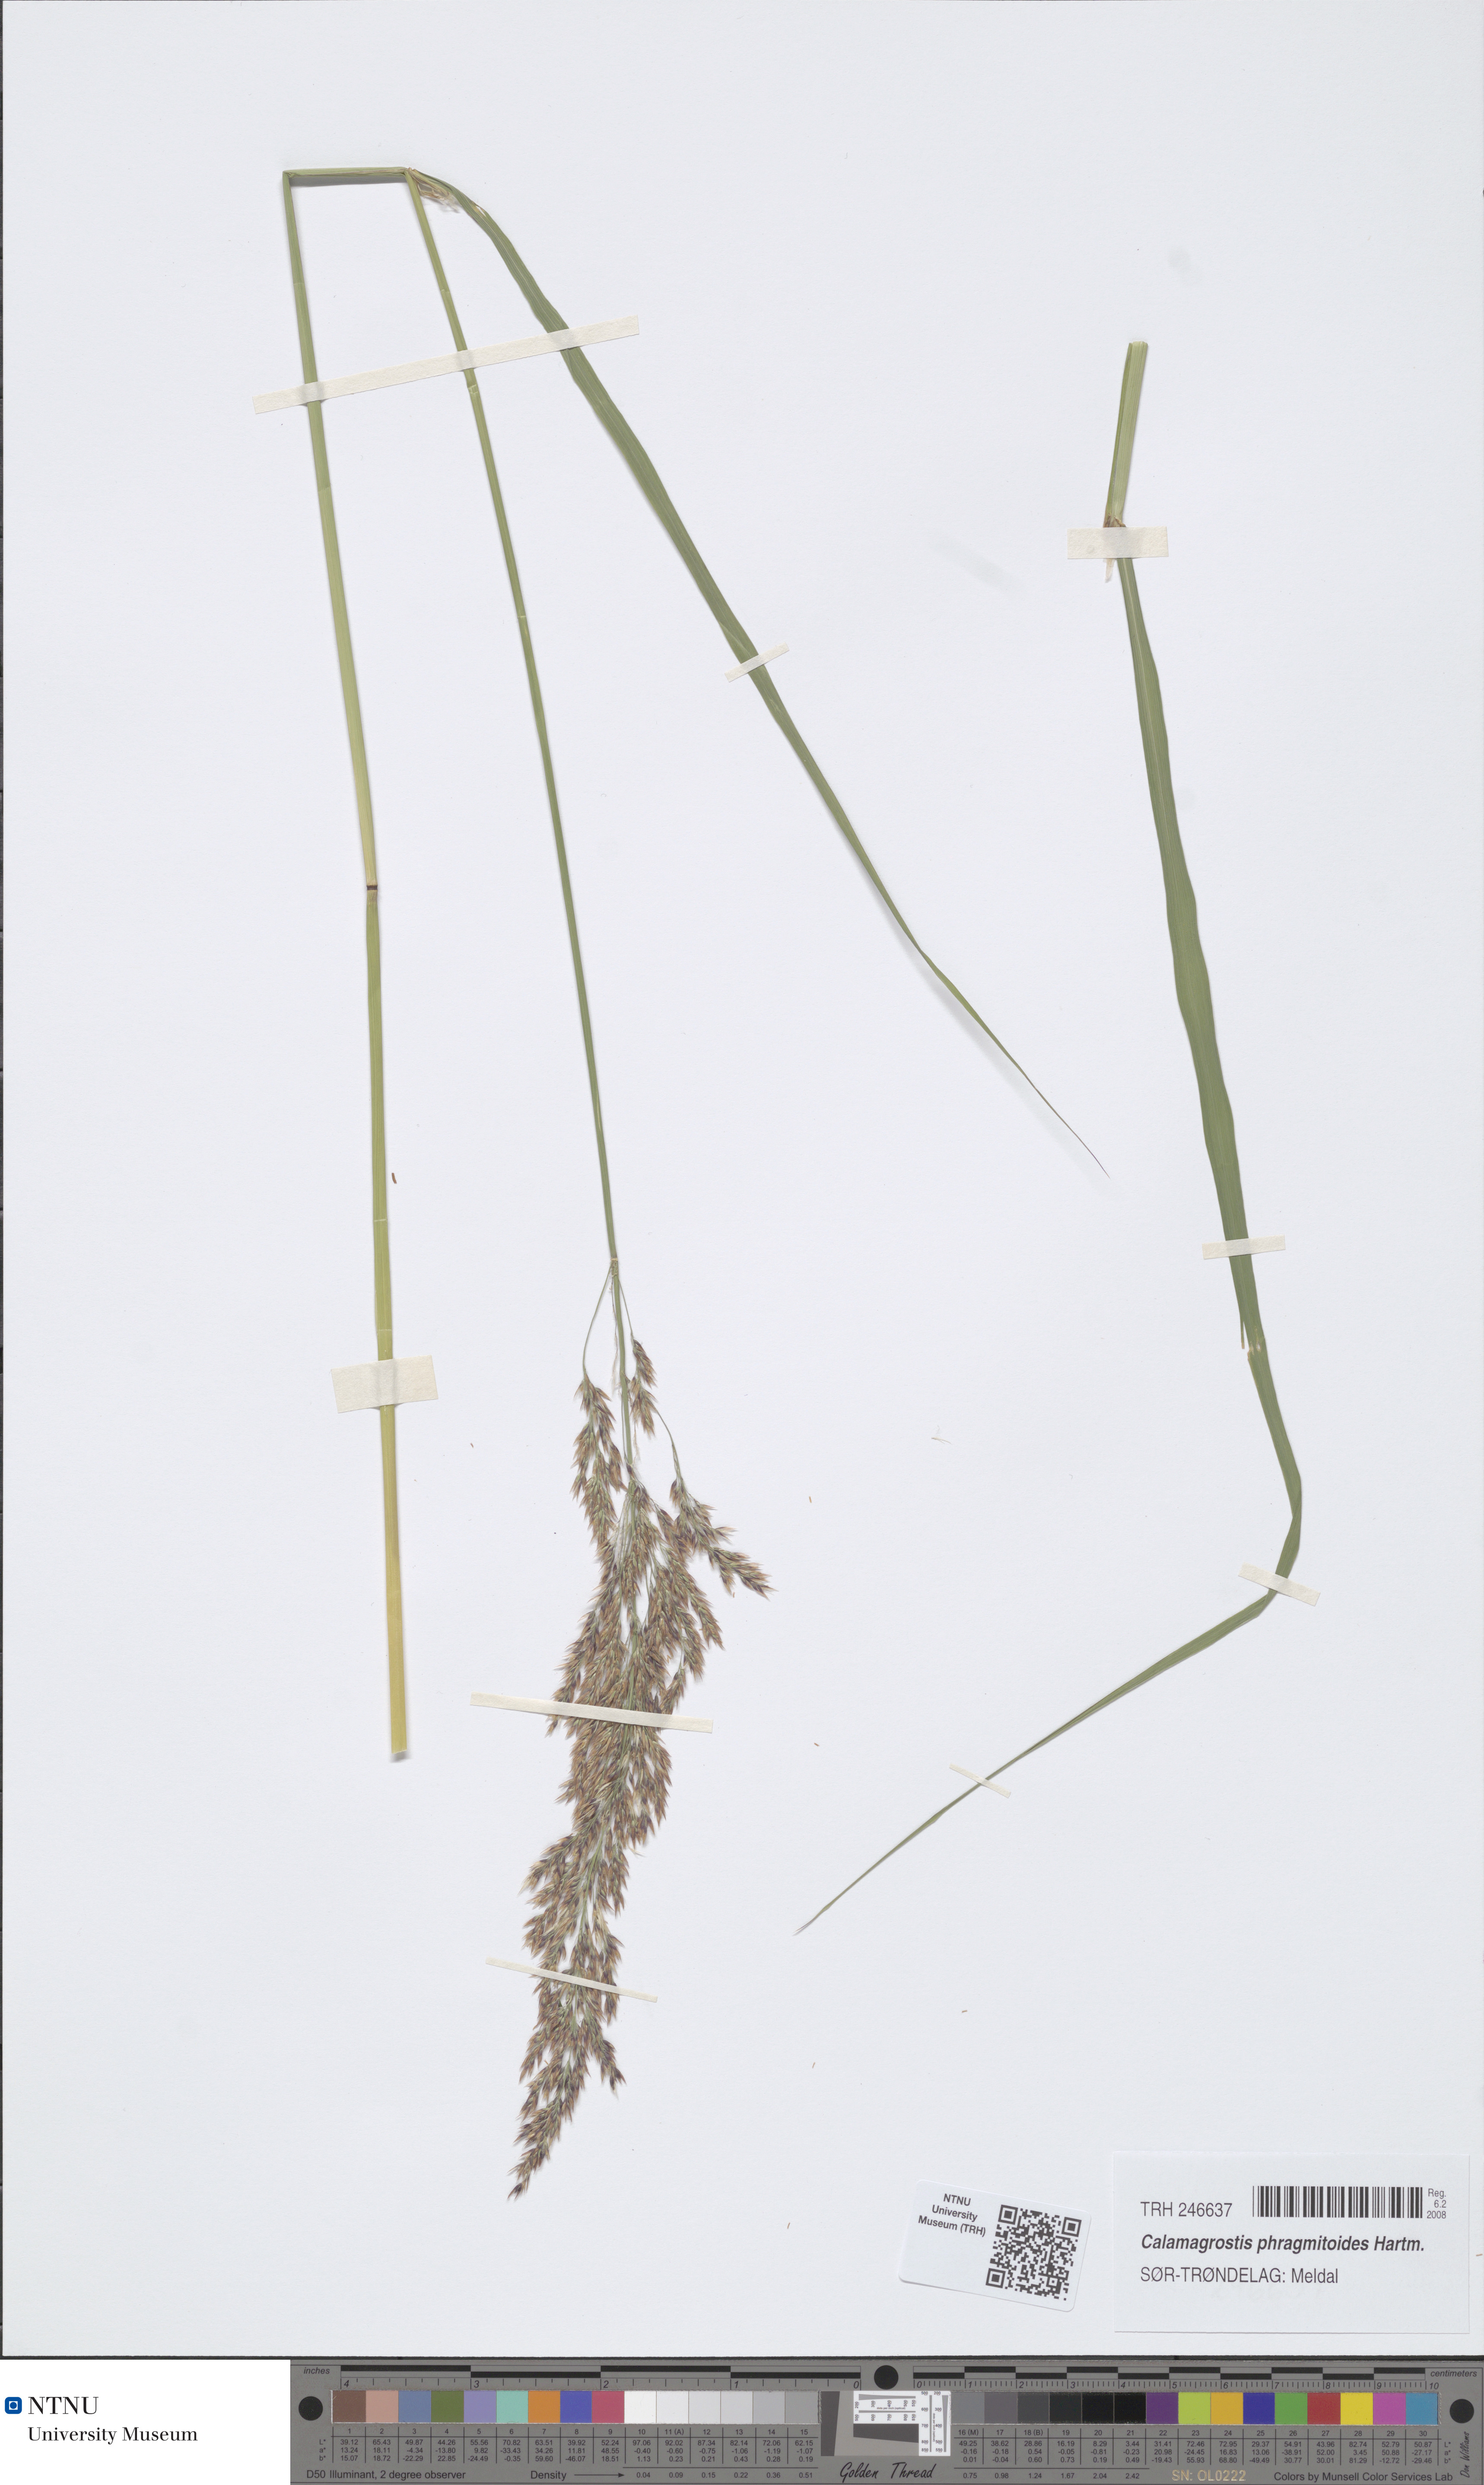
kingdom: Plantae
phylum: Tracheophyta
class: Liliopsida
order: Poales
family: Poaceae
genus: Calamagrostis
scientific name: Calamagrostis purpurea
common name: Scandinavian small-reed
